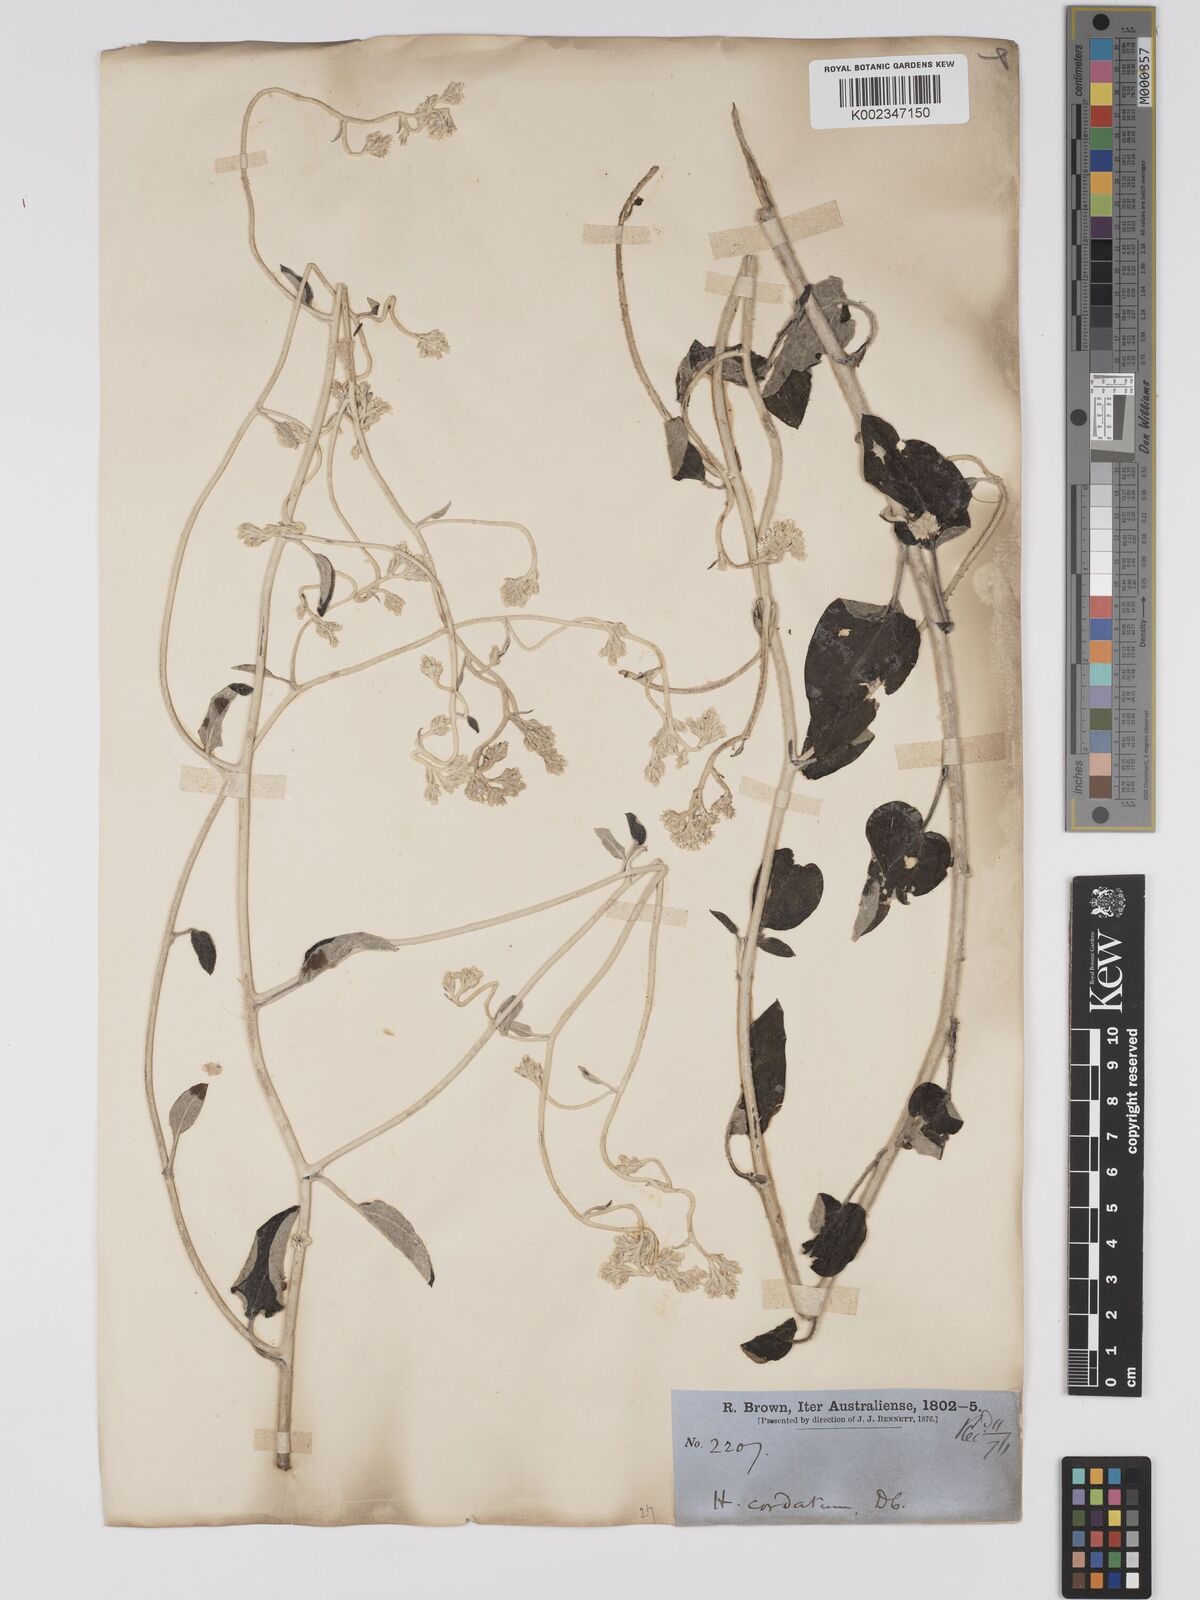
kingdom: Plantae
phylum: Tracheophyta
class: Magnoliopsida
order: Asterales
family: Asteraceae
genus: Ozothamnus
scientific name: Ozothamnus
